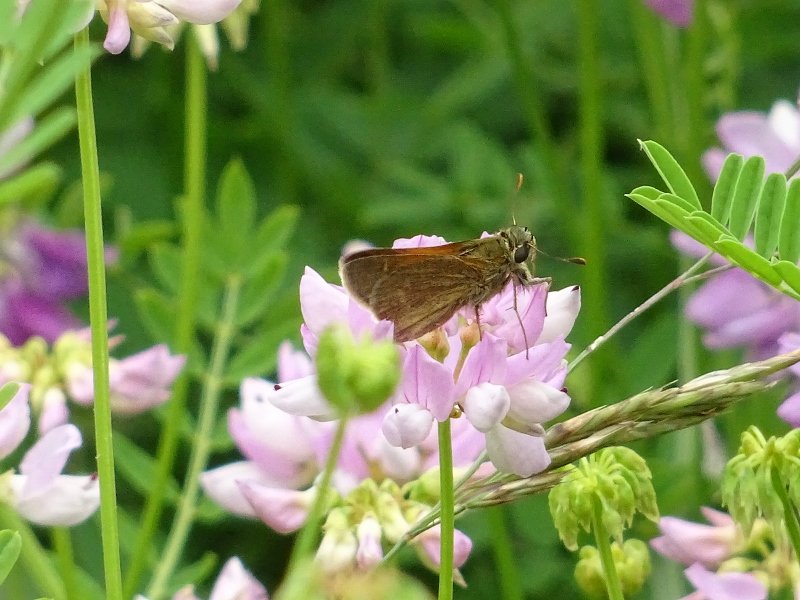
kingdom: Animalia
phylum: Arthropoda
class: Insecta
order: Lepidoptera
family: Hesperiidae
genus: Polites
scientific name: Polites themistocles
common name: Tawny-edged Skipper
